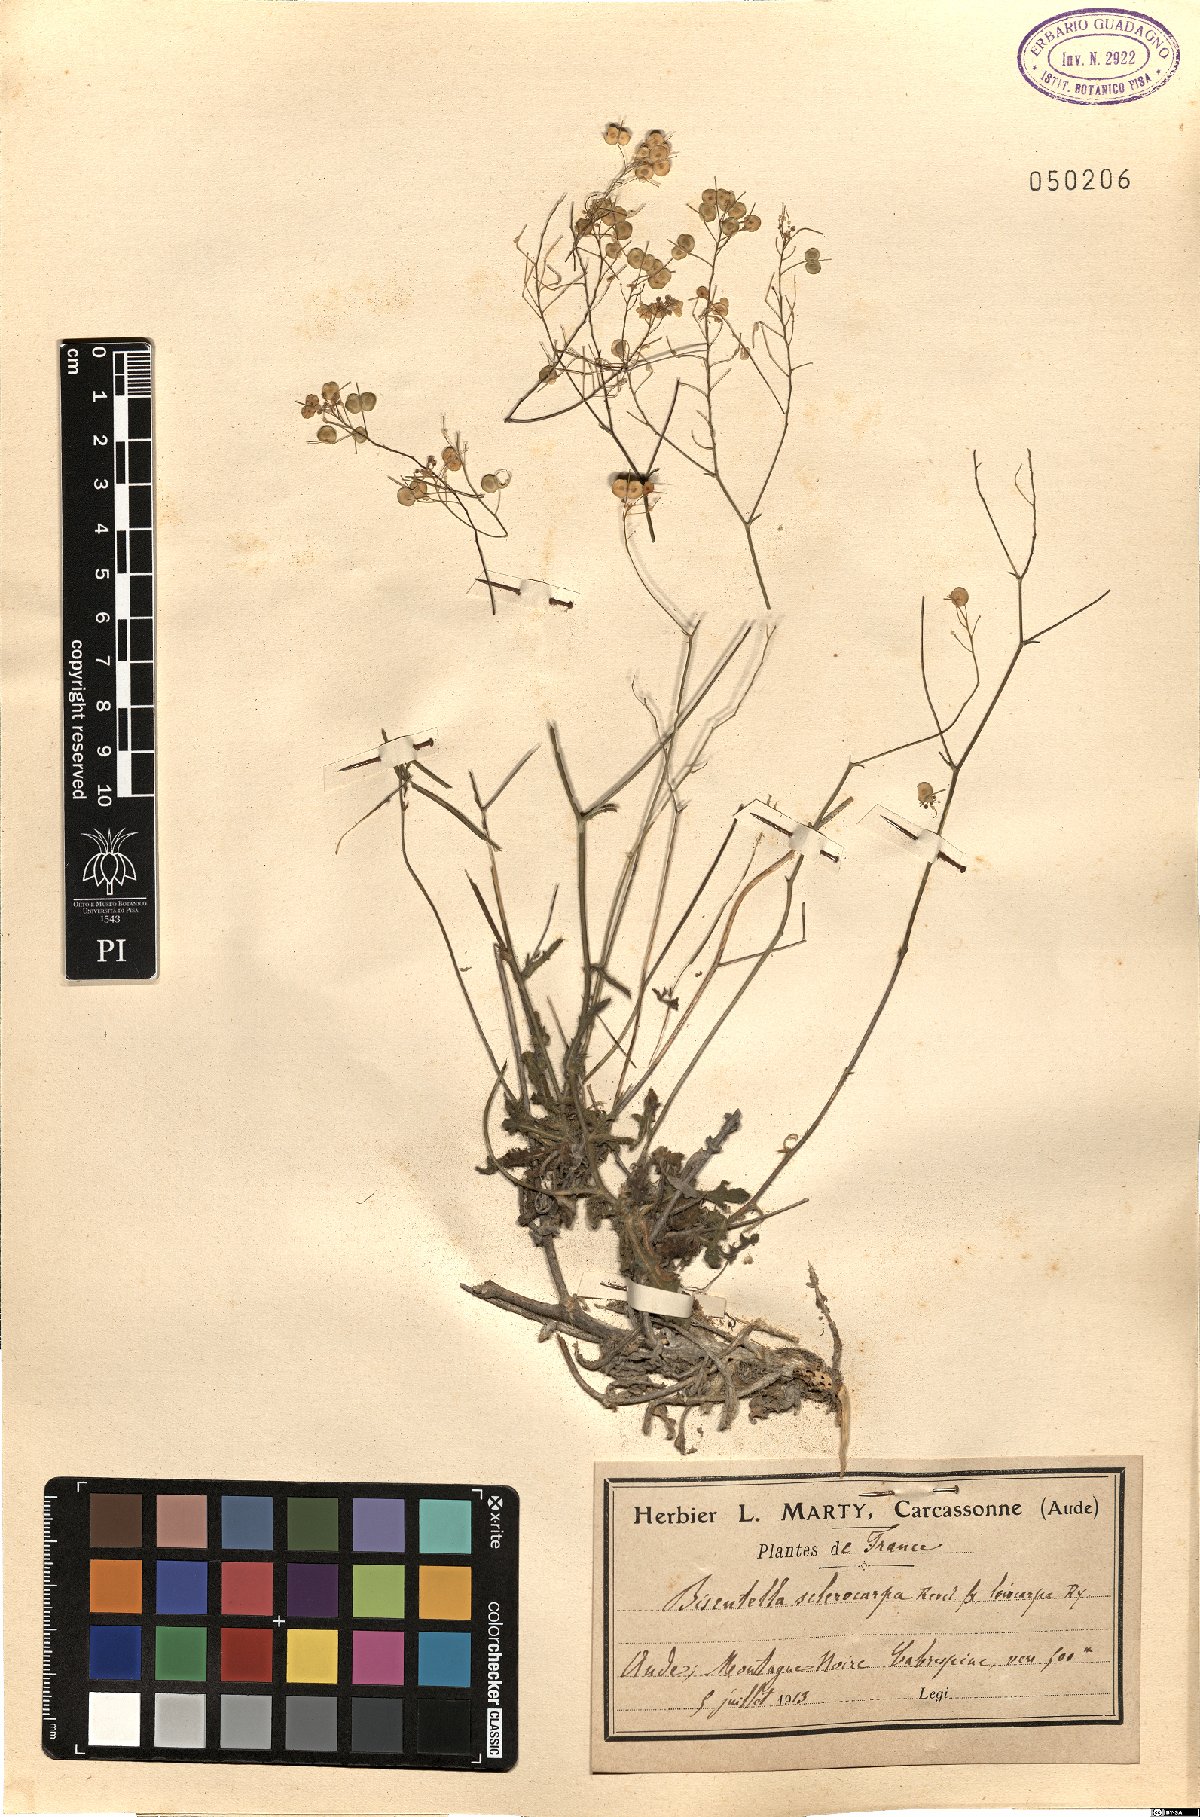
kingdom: Plantae
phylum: Tracheophyta
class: Magnoliopsida
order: Brassicales
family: Brassicaceae
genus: Biscutella
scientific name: Biscutella sclerocarpa
